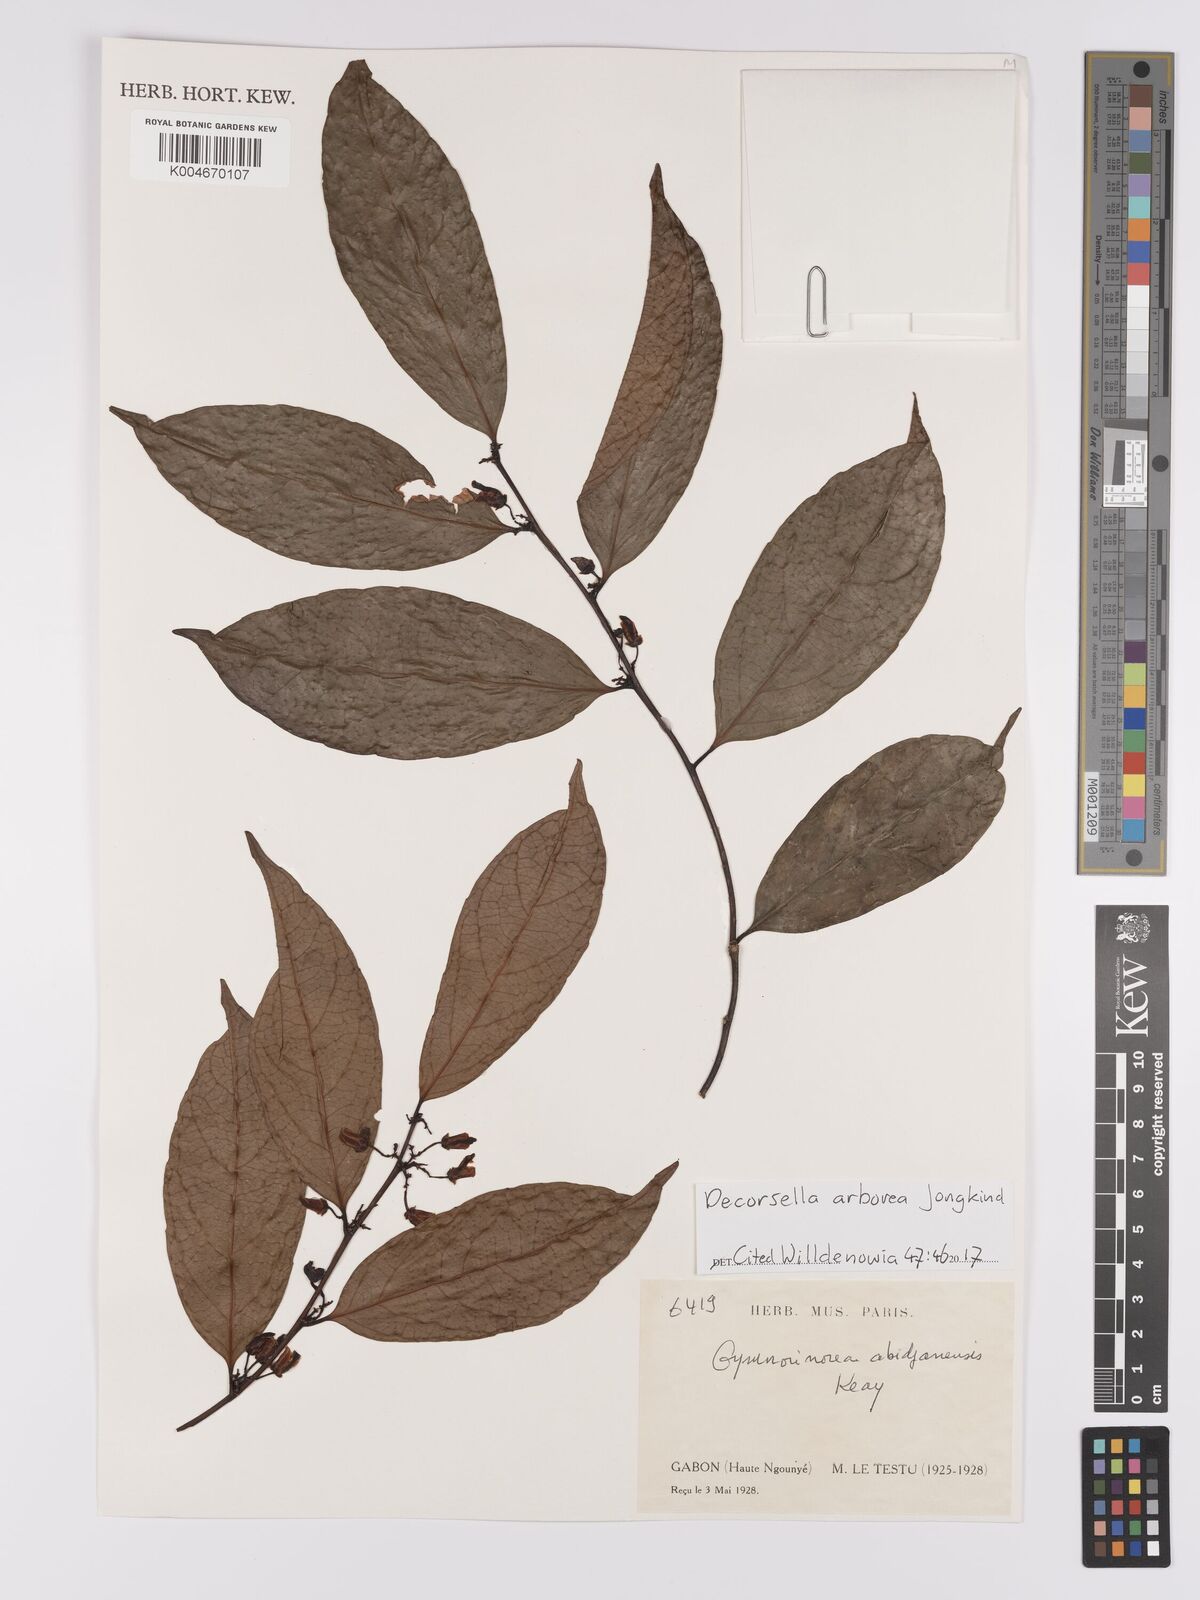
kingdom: Plantae
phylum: Tracheophyta
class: Magnoliopsida
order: Malpighiales
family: Violaceae
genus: Decorsella
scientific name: Decorsella arborea
